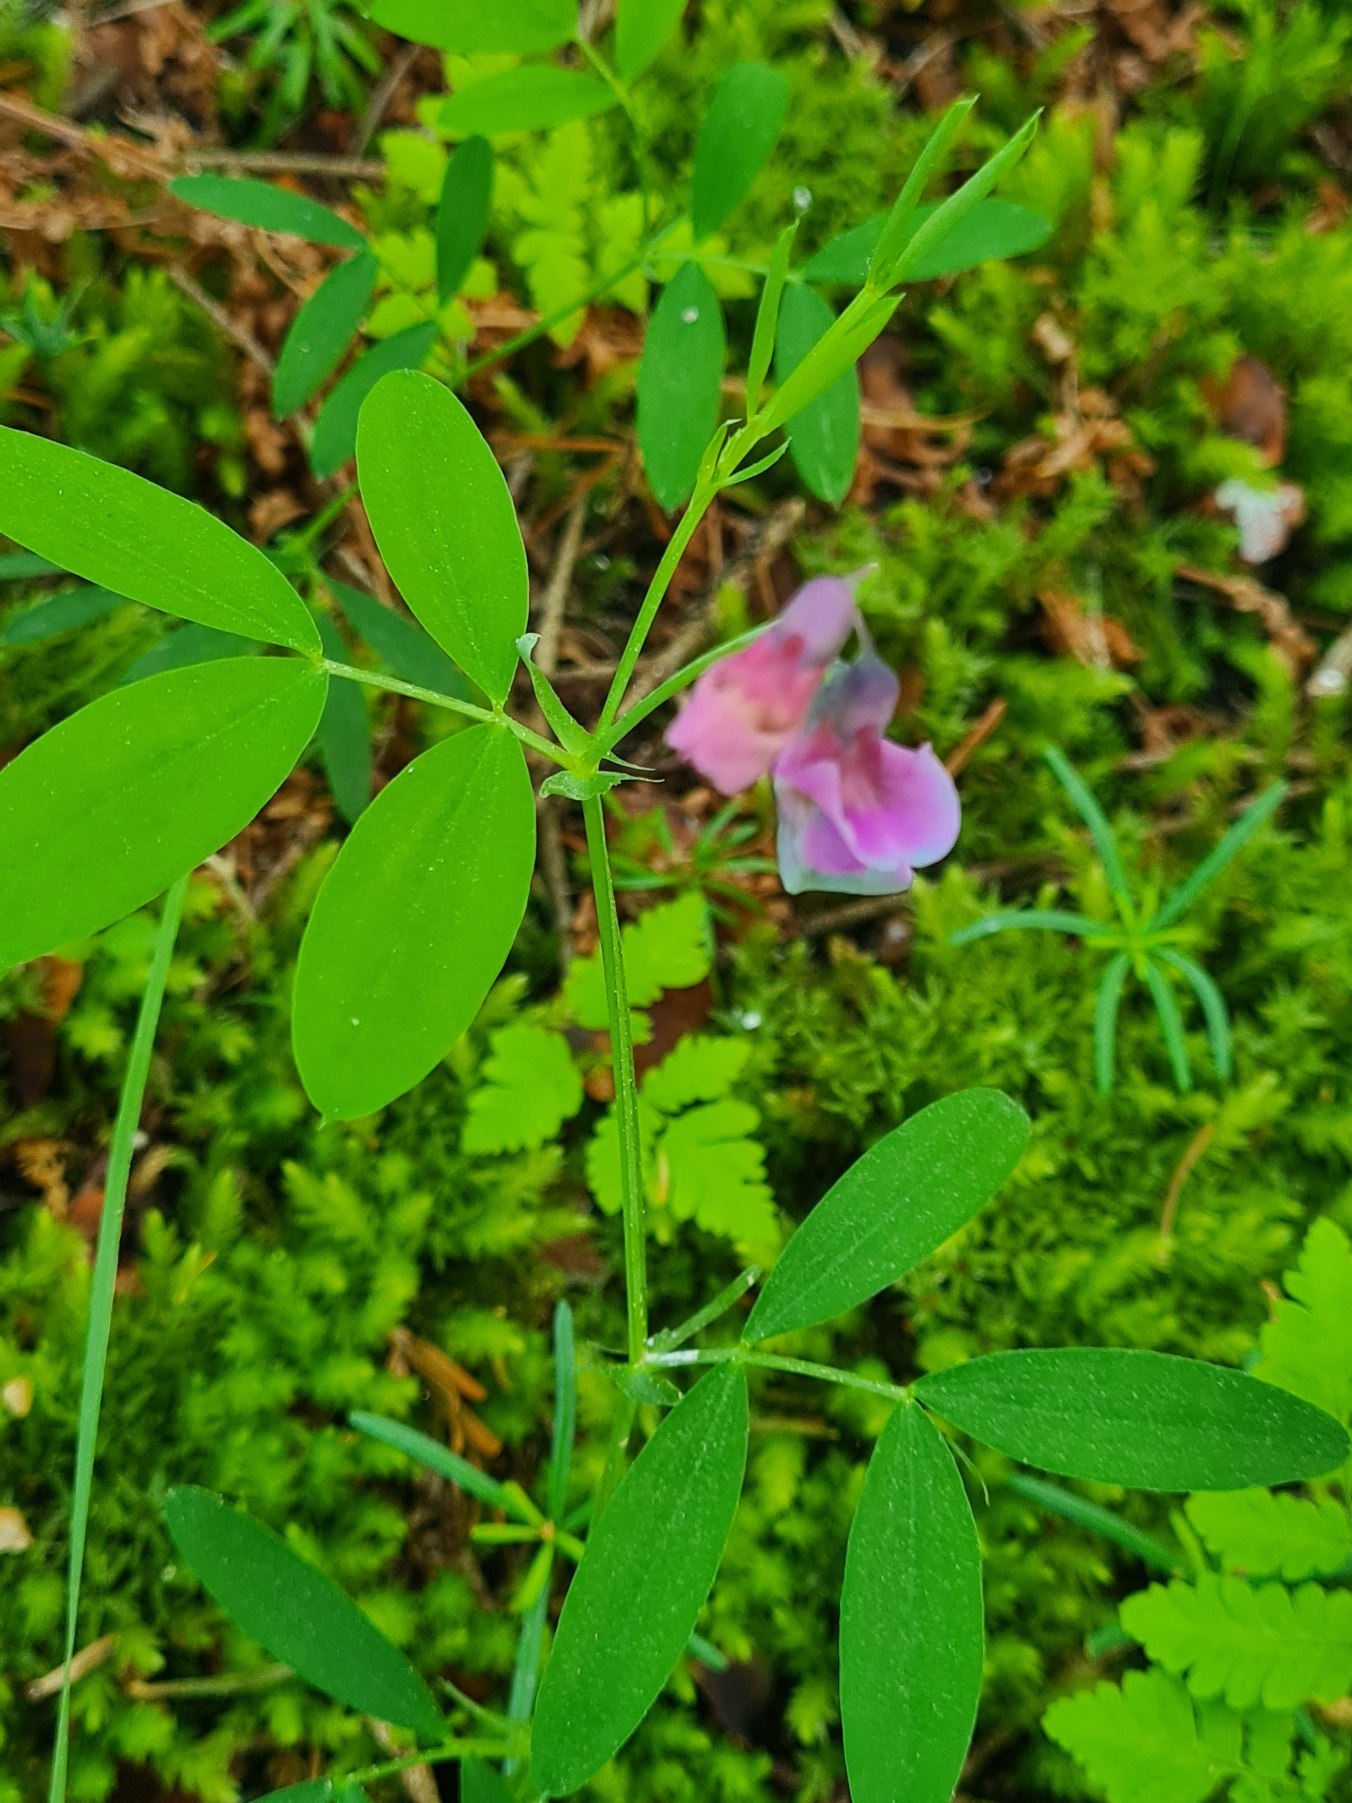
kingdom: Plantae
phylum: Tracheophyta
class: Magnoliopsida
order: Fabales
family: Fabaceae
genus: Lathyrus
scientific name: Lathyrus linifolius
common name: Krat-fladbælg
